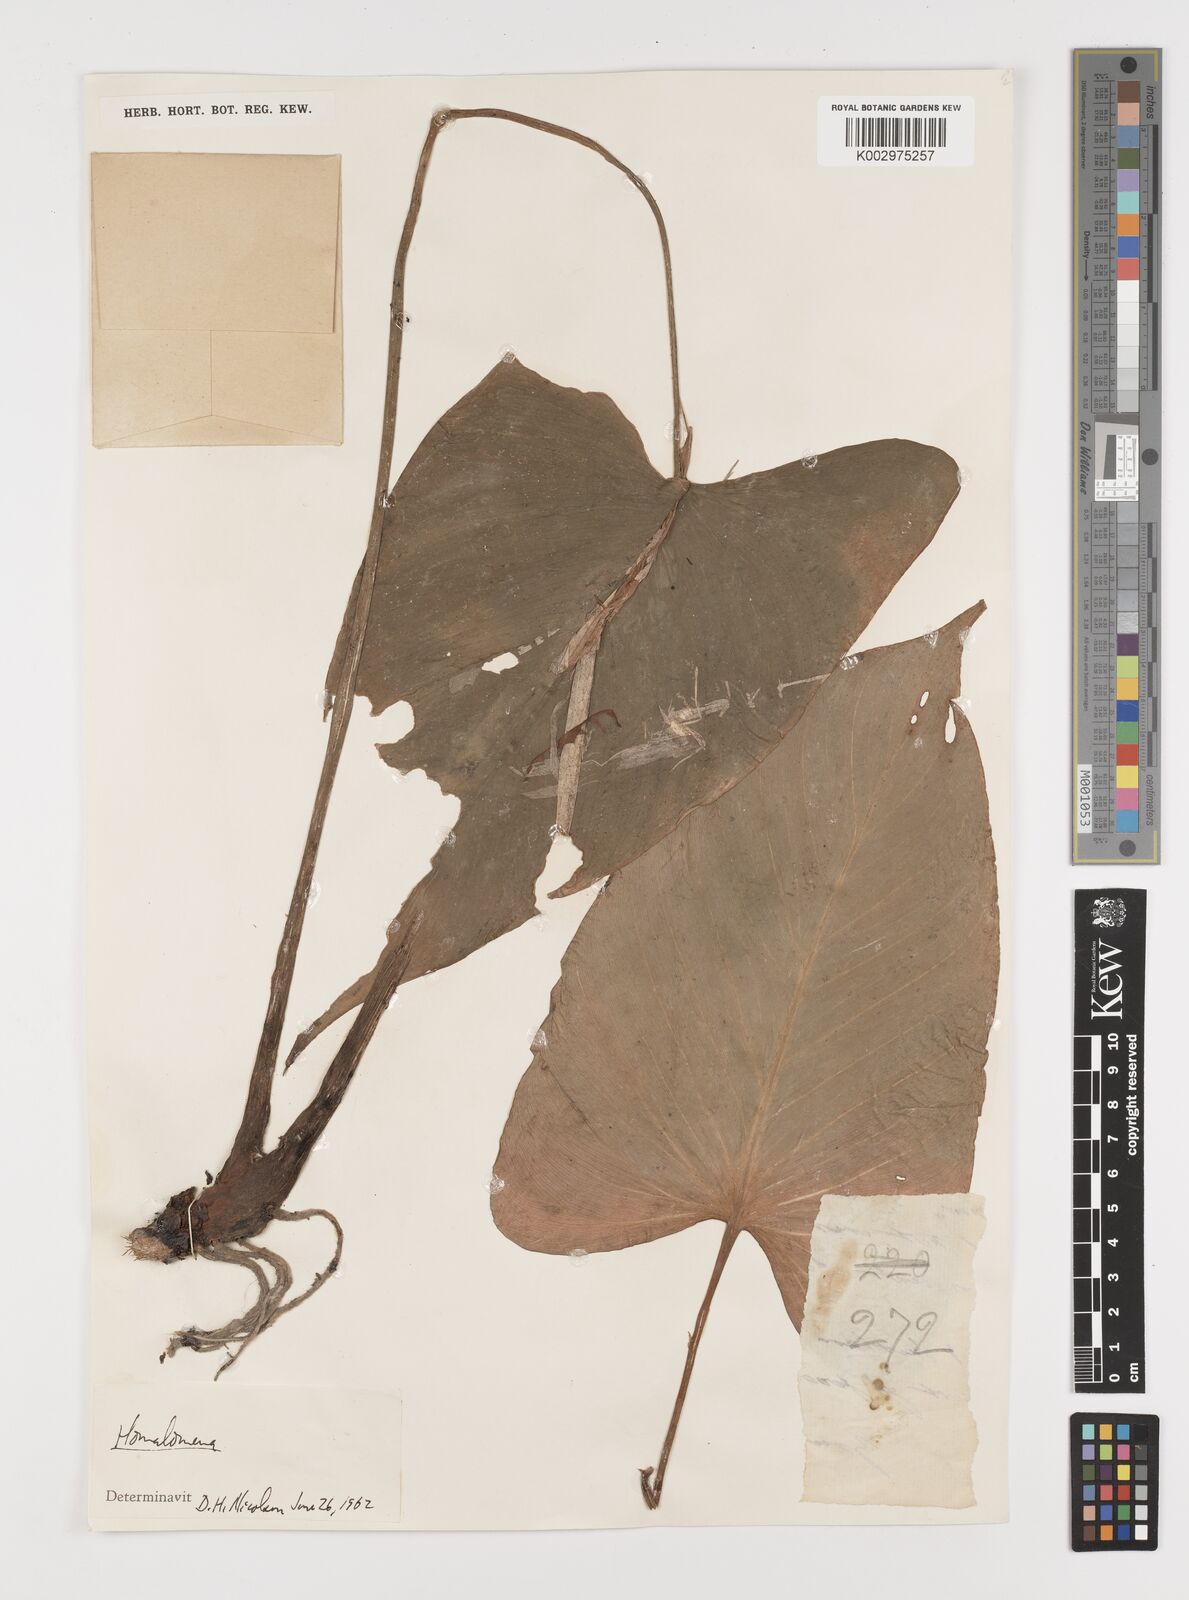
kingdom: Plantae
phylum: Tracheophyta
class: Liliopsida
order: Alismatales
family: Araceae
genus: Homalomena
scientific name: Homalomena
